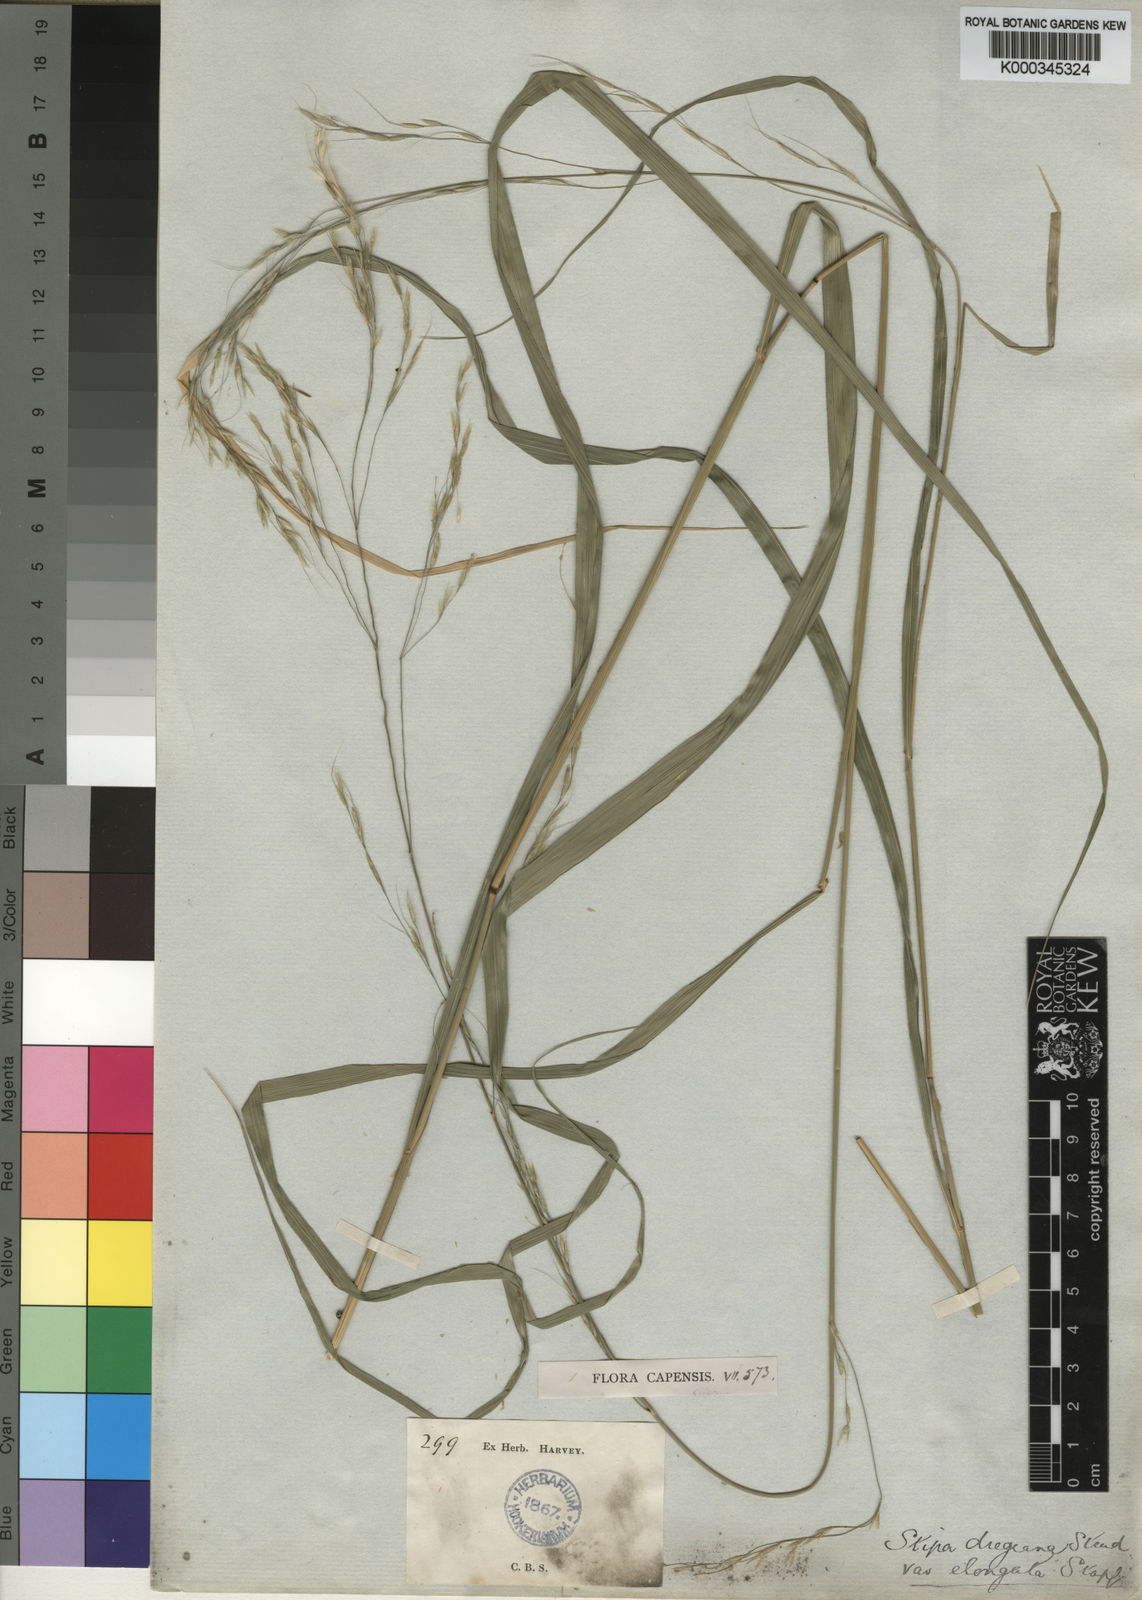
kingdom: Plantae
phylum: Tracheophyta
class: Liliopsida
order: Poales
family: Poaceae
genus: Stipa
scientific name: Stipa dregeana
